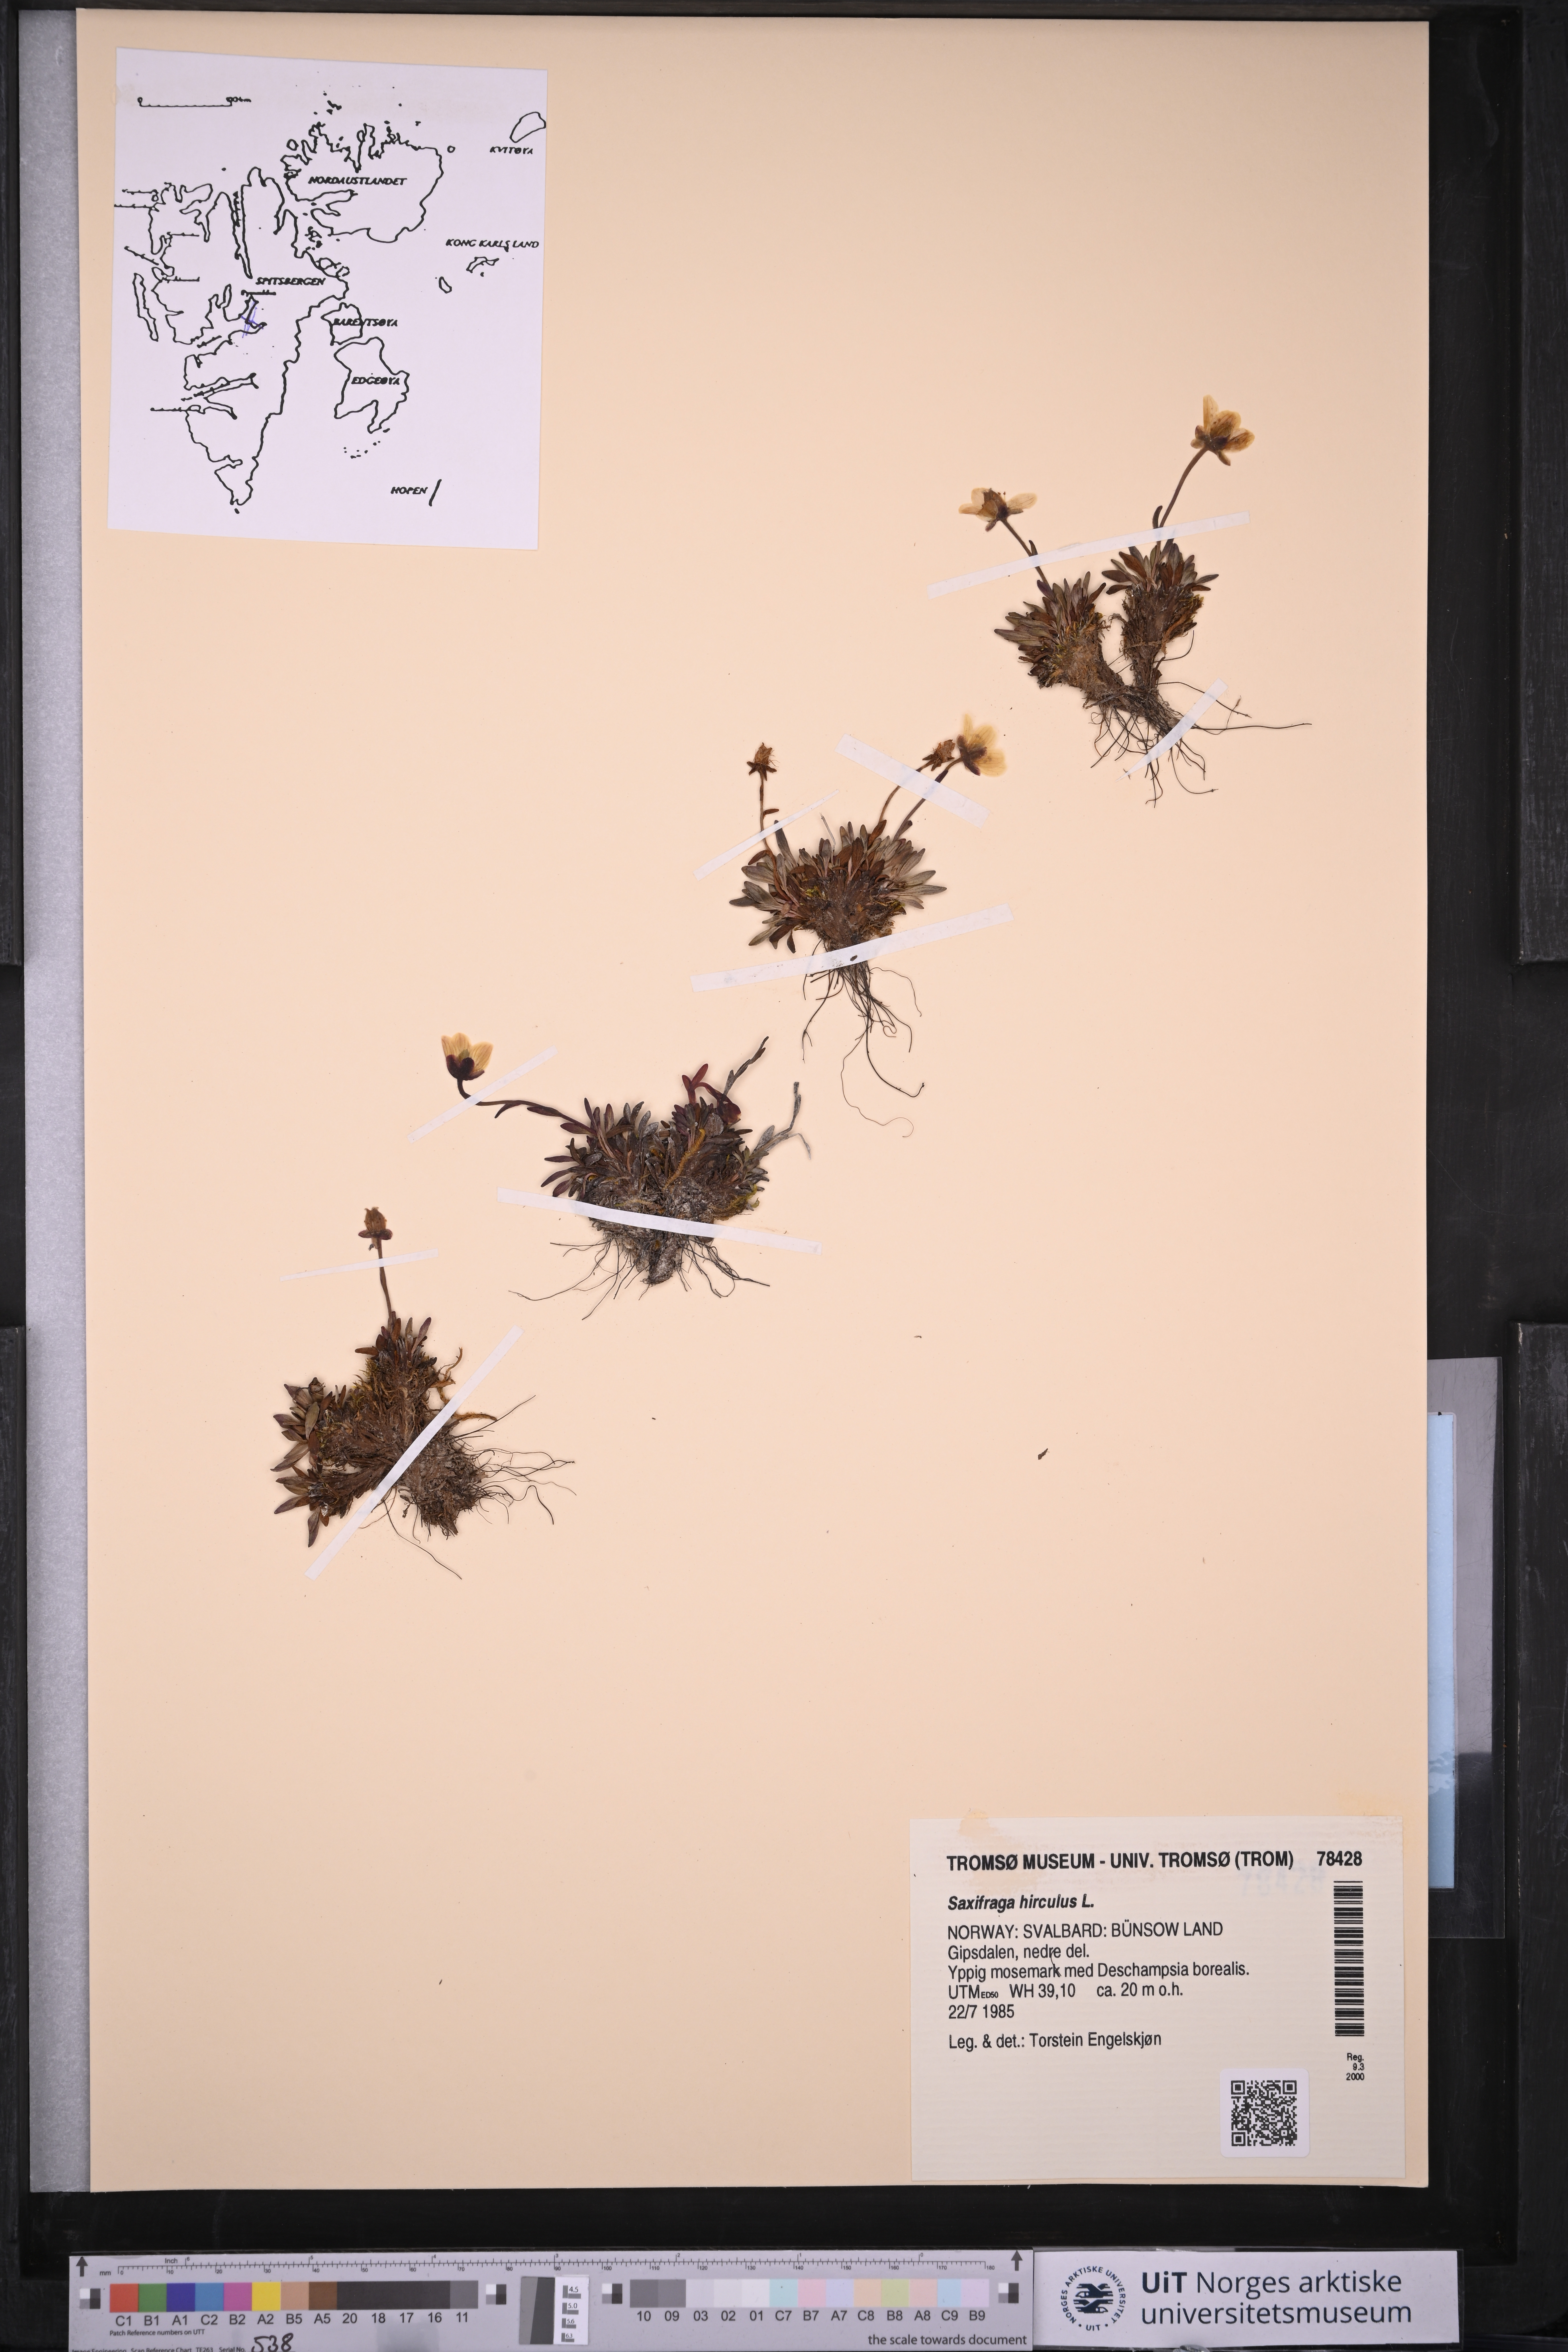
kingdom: Plantae
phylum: Tracheophyta
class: Magnoliopsida
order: Saxifragales
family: Saxifragaceae
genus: Saxifraga
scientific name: Saxifraga hirculus
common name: Yellow marsh saxifrage
